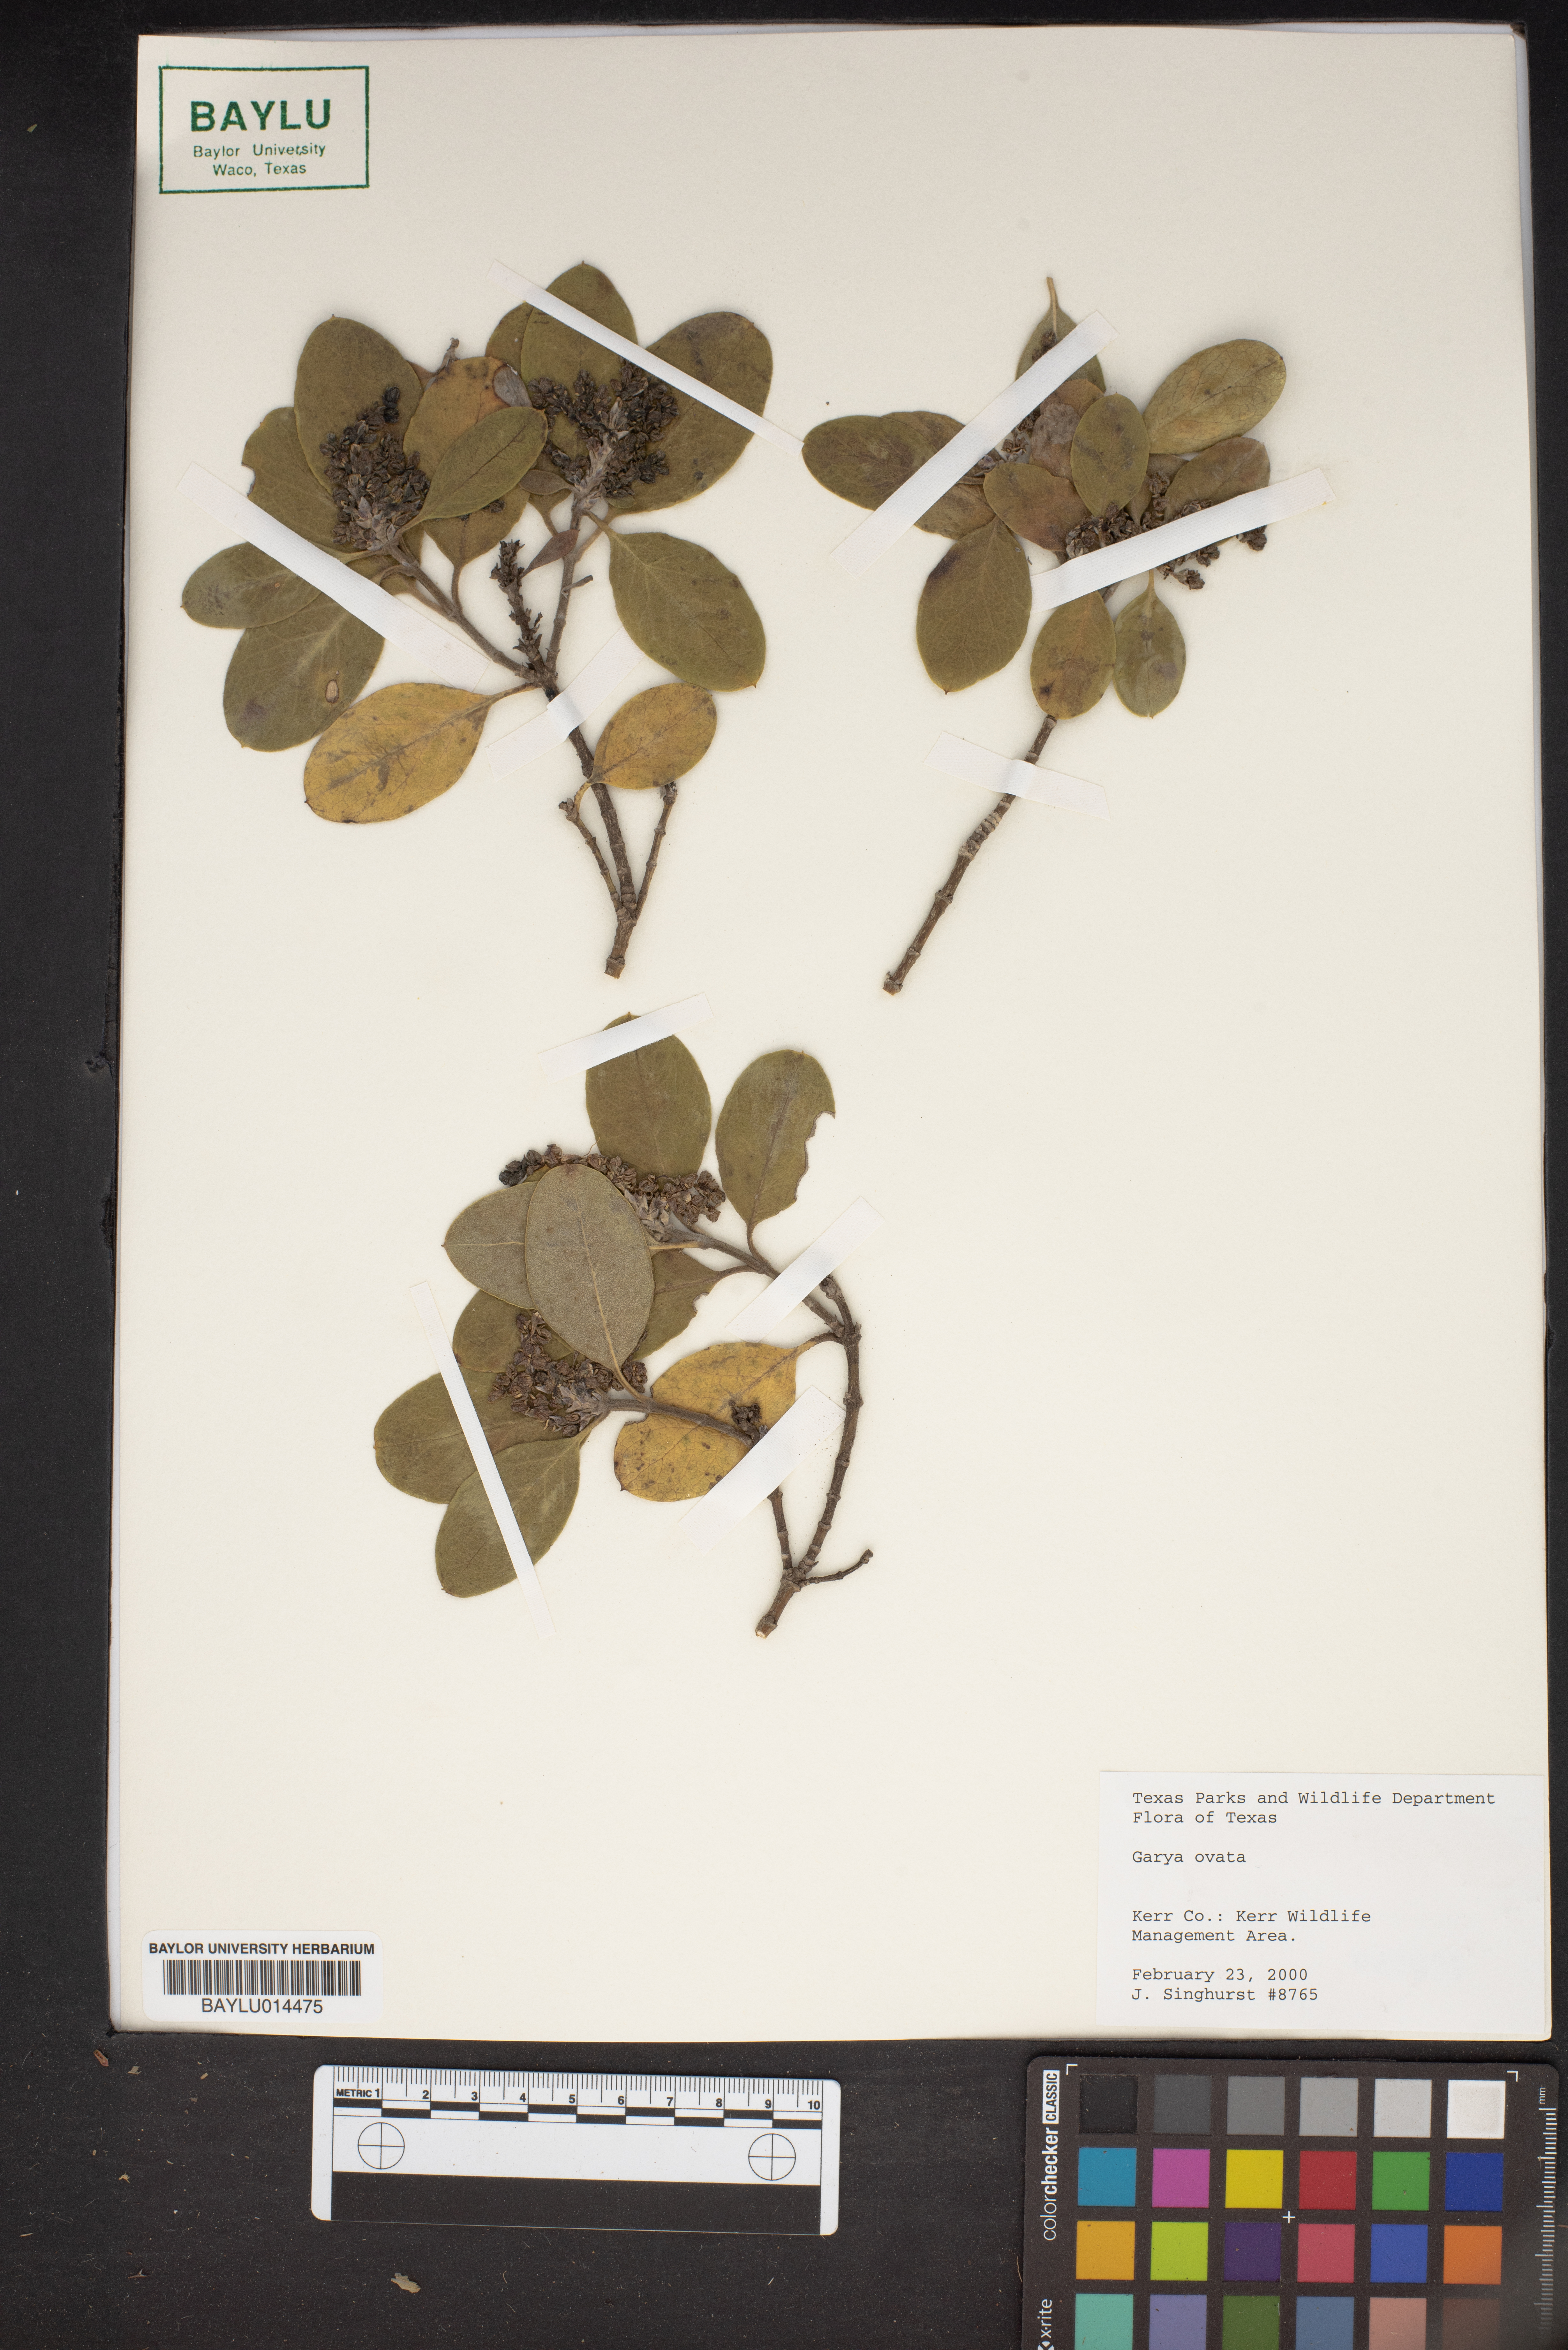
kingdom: Plantae
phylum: Tracheophyta
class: Magnoliopsida
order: Garryales
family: Garryaceae
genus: Garrya
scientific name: Garrya ovata
